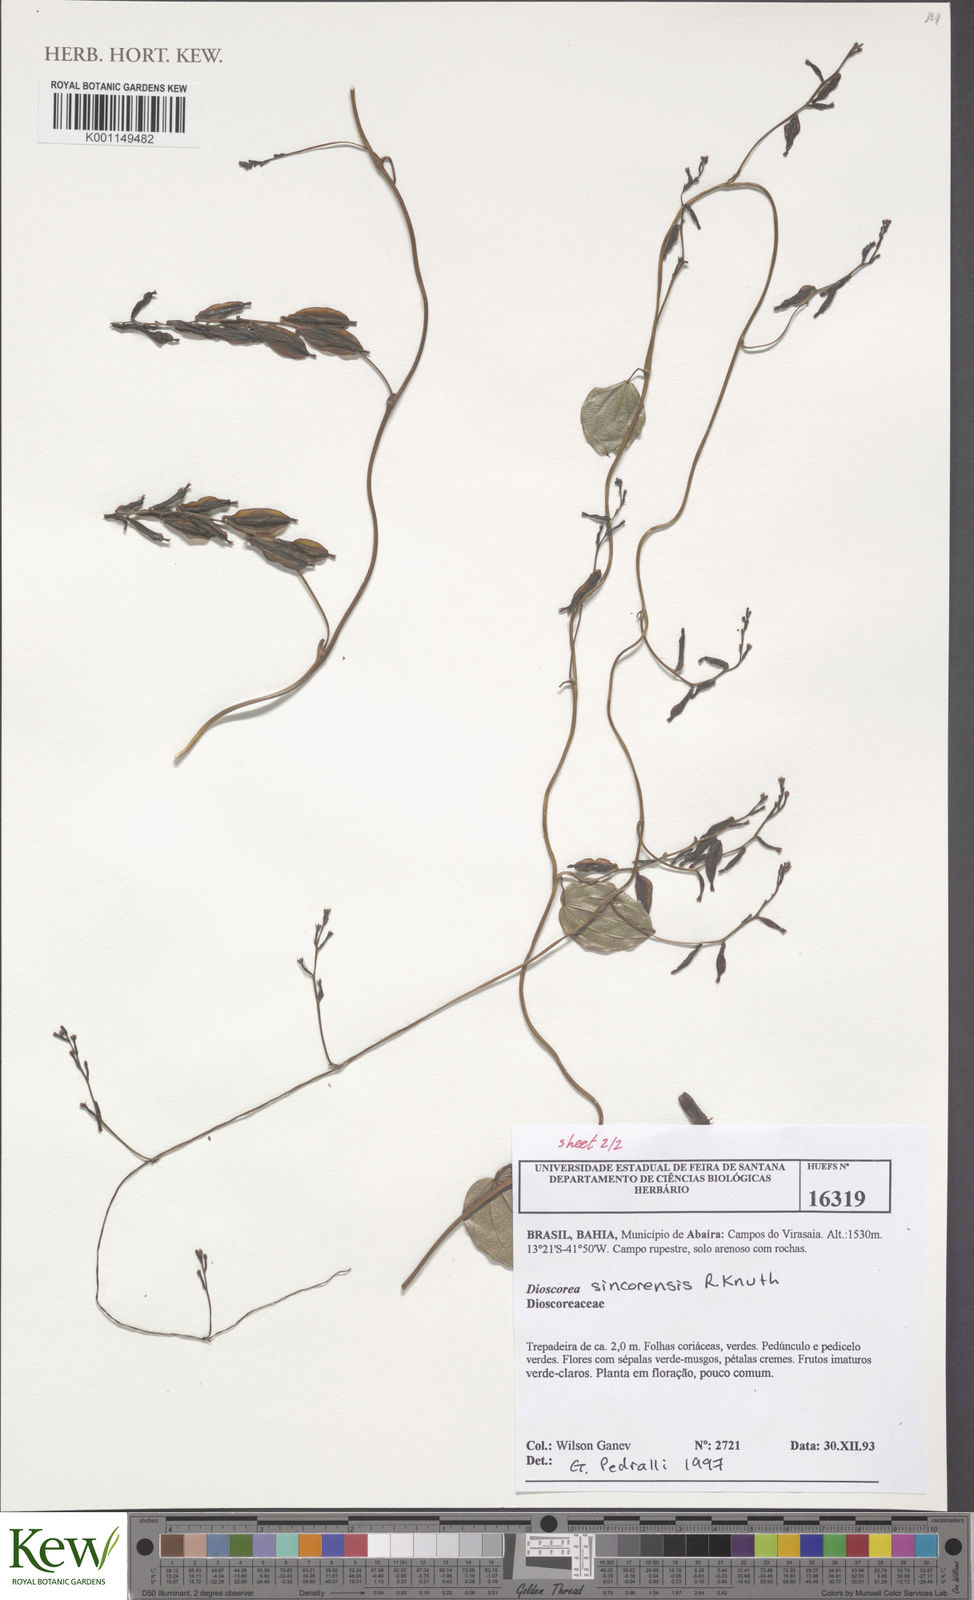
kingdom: Plantae
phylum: Tracheophyta
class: Liliopsida
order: Dioscoreales
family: Dioscoreaceae
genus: Dioscorea
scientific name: Dioscorea sincorensis
